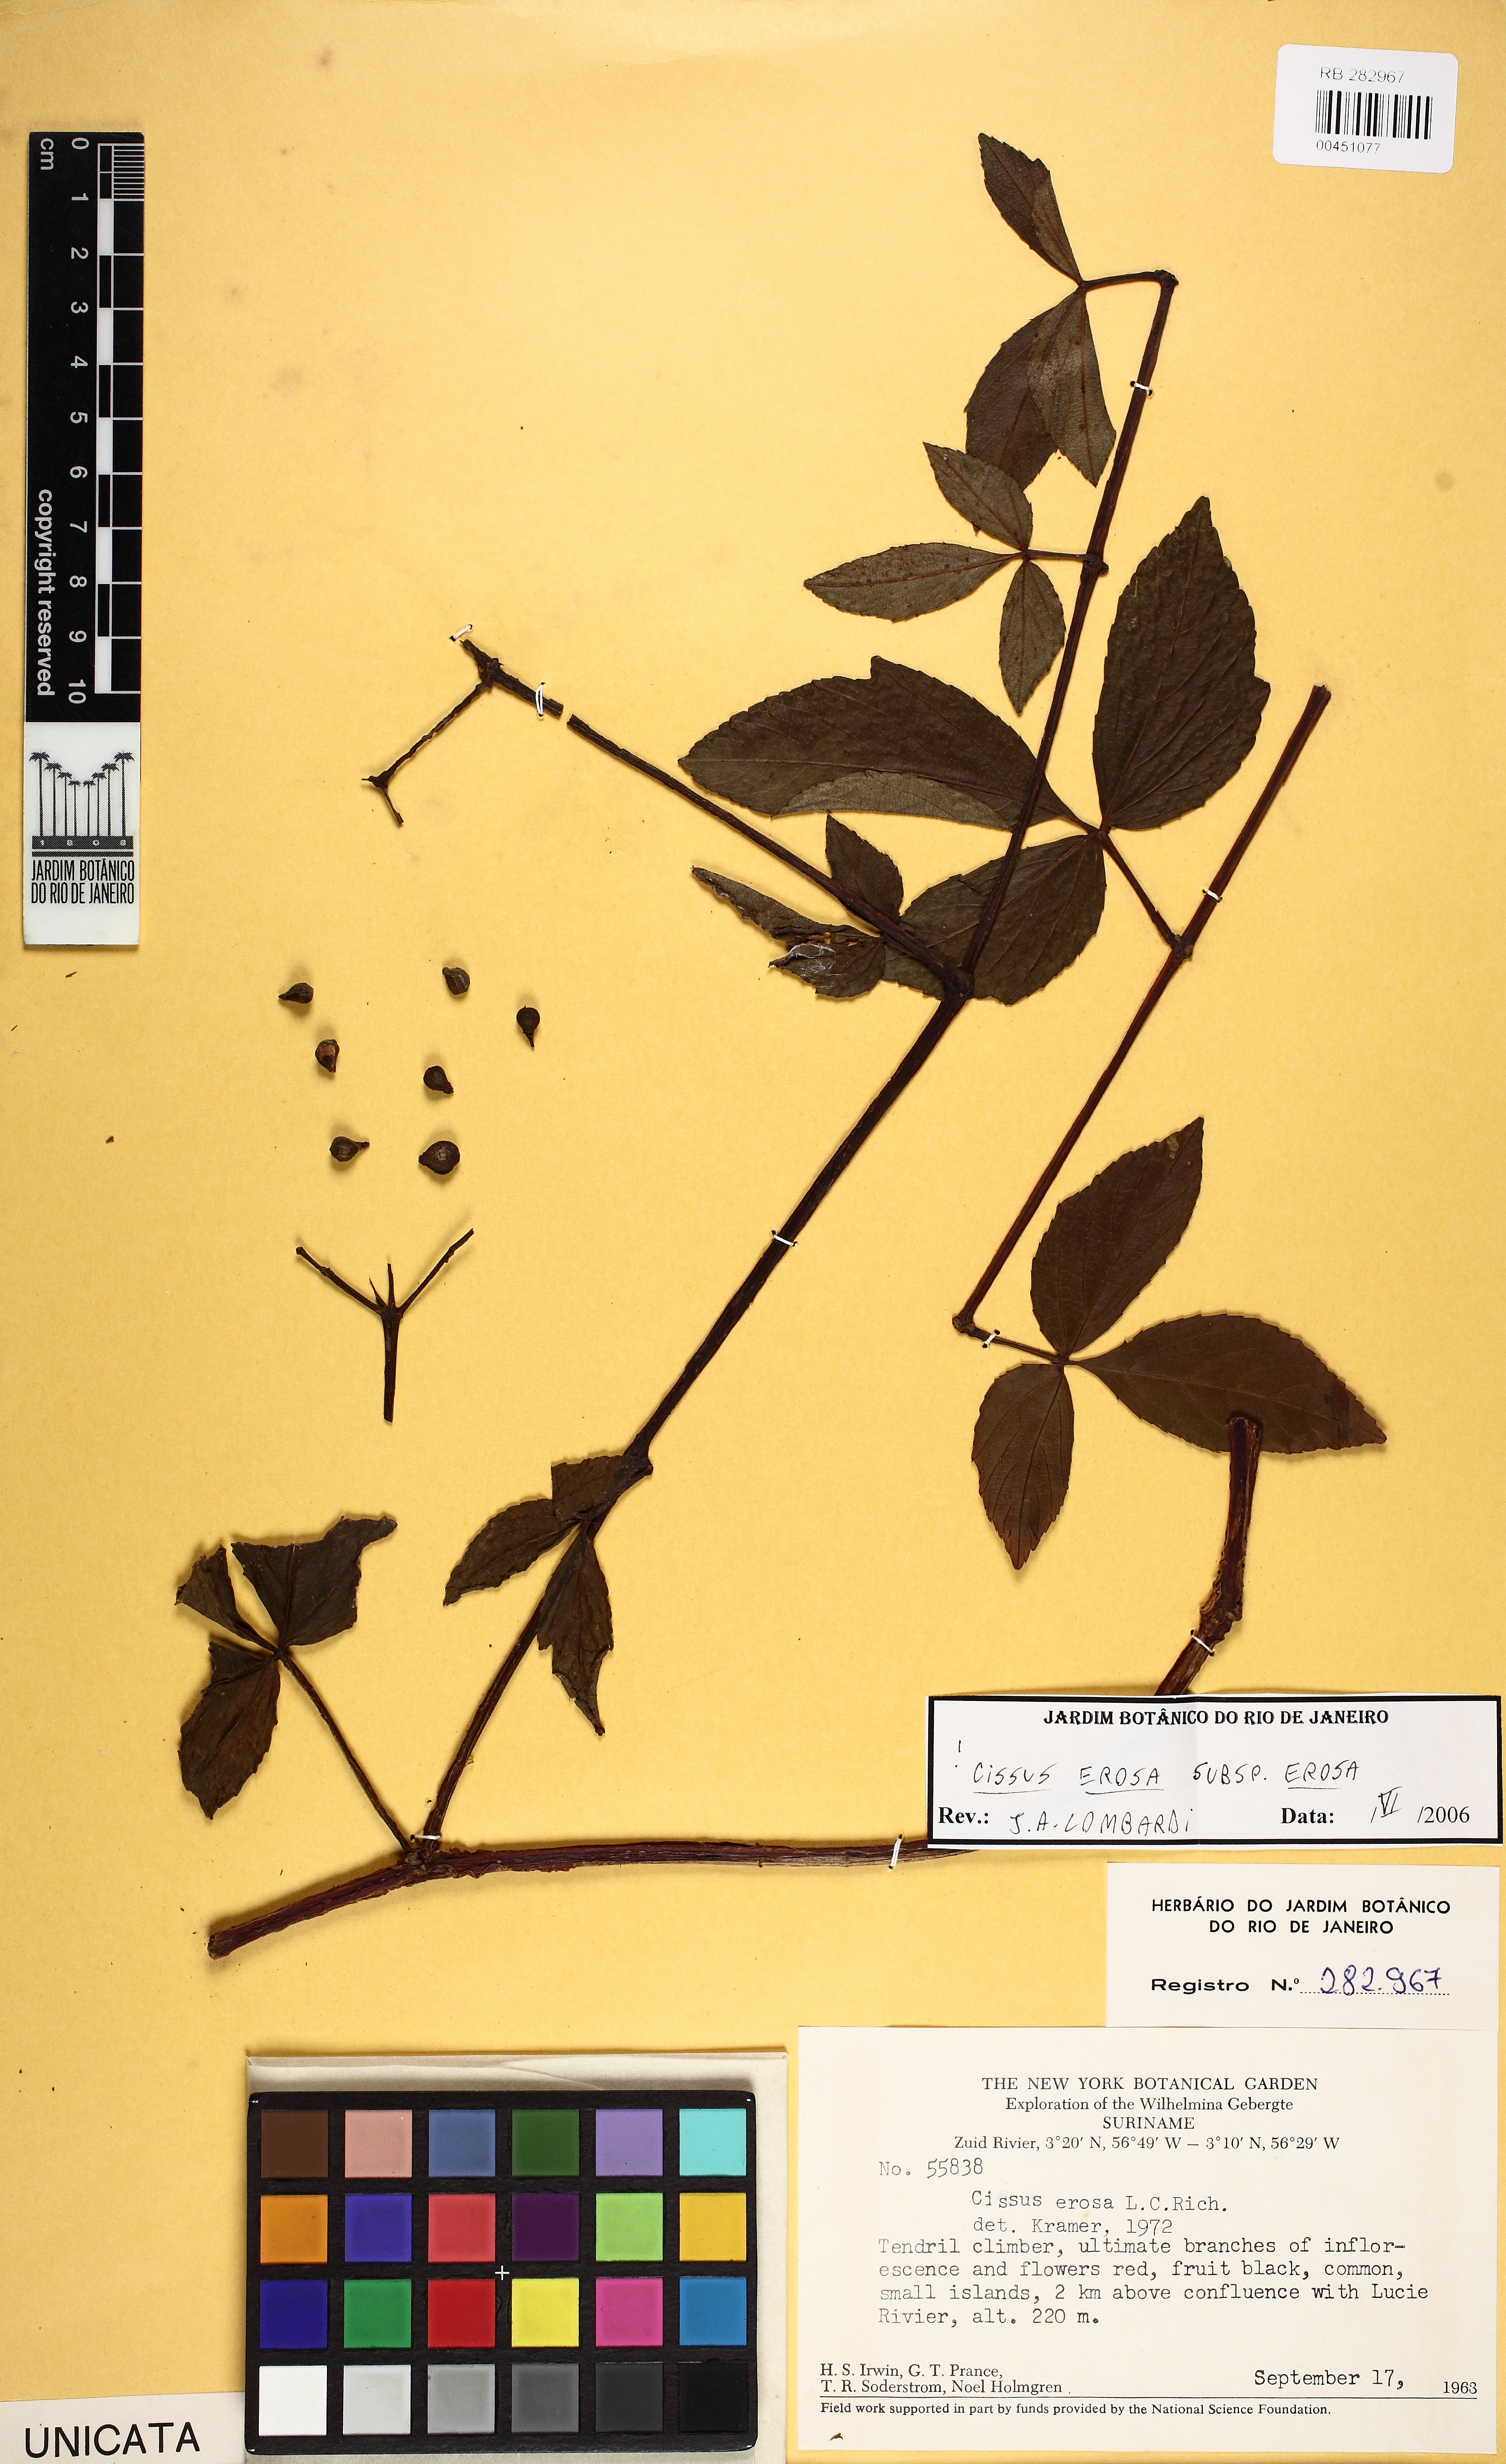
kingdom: Plantae
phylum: Tracheophyta
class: Magnoliopsida
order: Vitales
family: Vitaceae
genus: Cissus
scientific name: Cissus erosa
